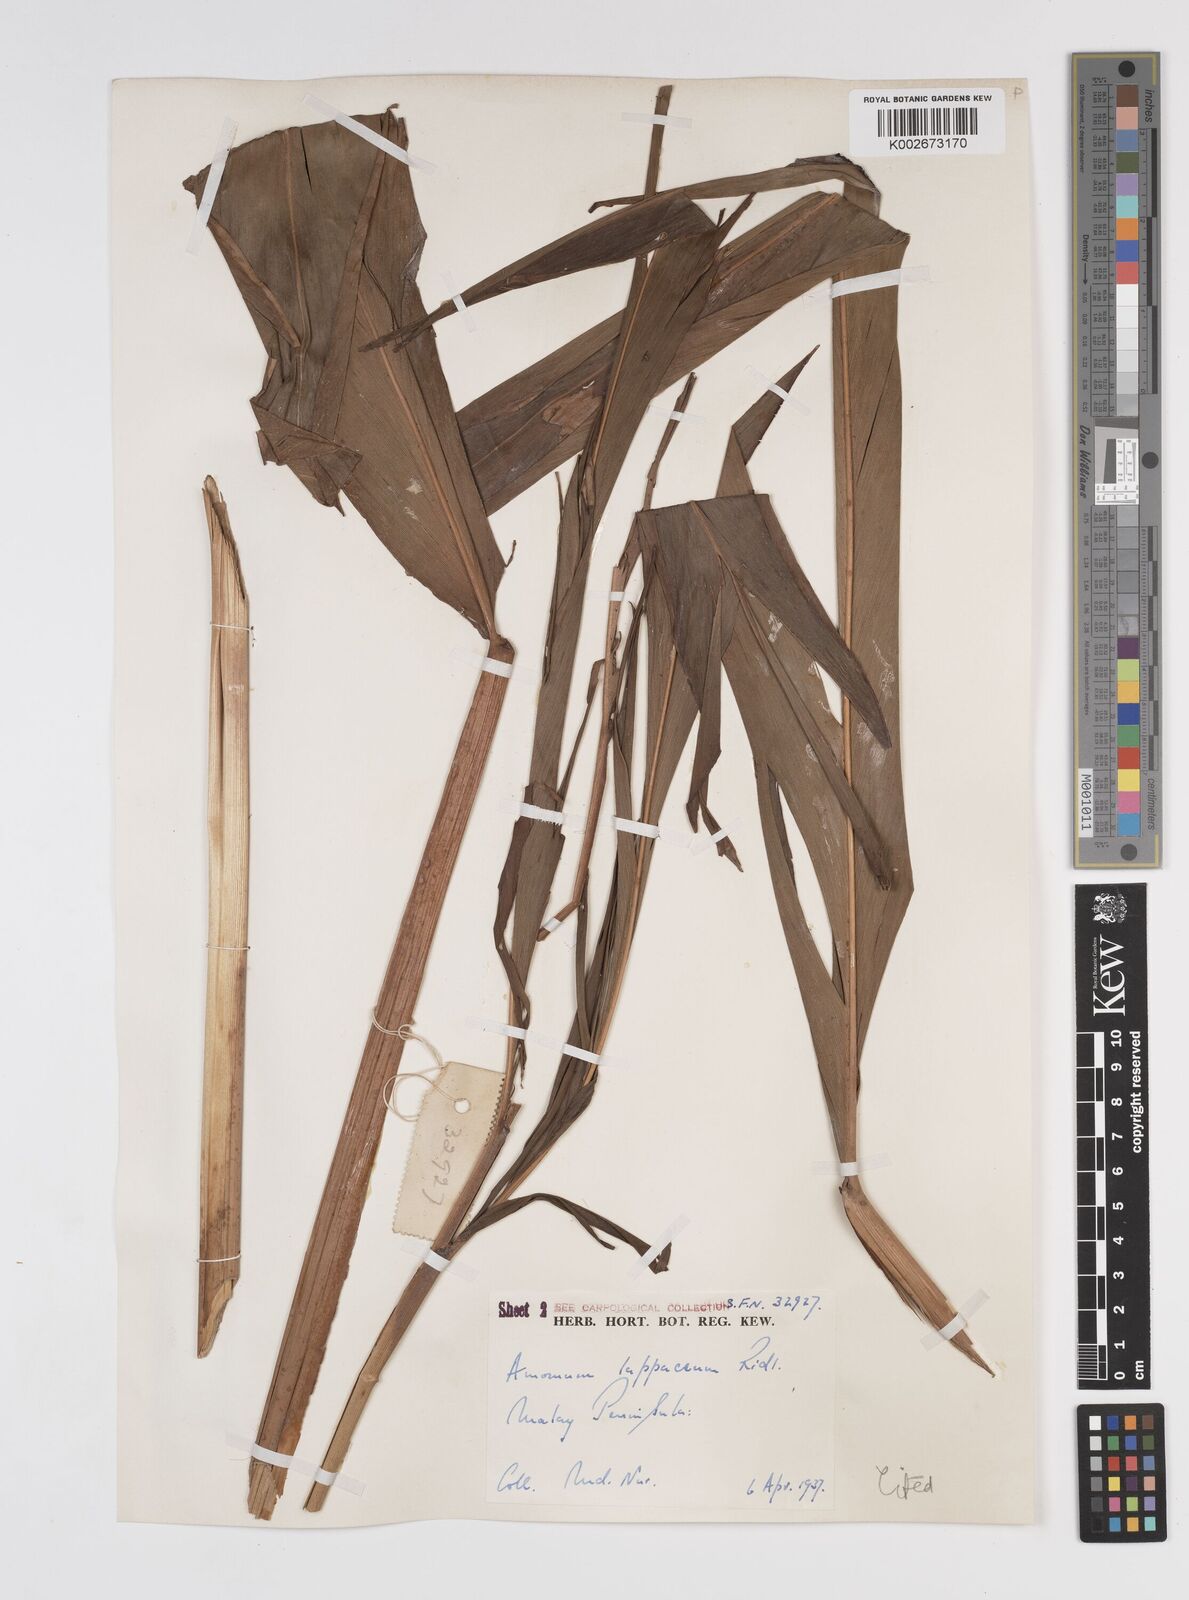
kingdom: Plantae
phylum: Tracheophyta
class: Liliopsida
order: Zingiberales
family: Zingiberaceae
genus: Meistera
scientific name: Meistera lappacea
